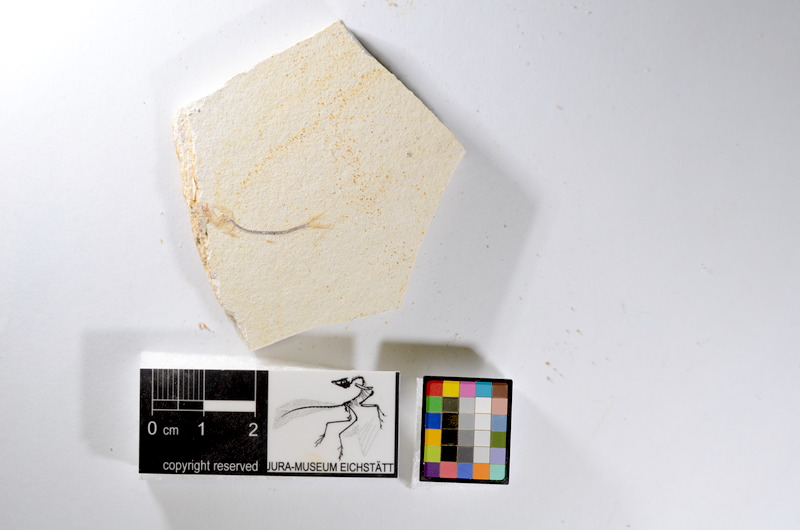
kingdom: Animalia
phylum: Chordata
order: Salmoniformes
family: Orthogonikleithridae
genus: Orthogonikleithrus
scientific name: Orthogonikleithrus hoelli
